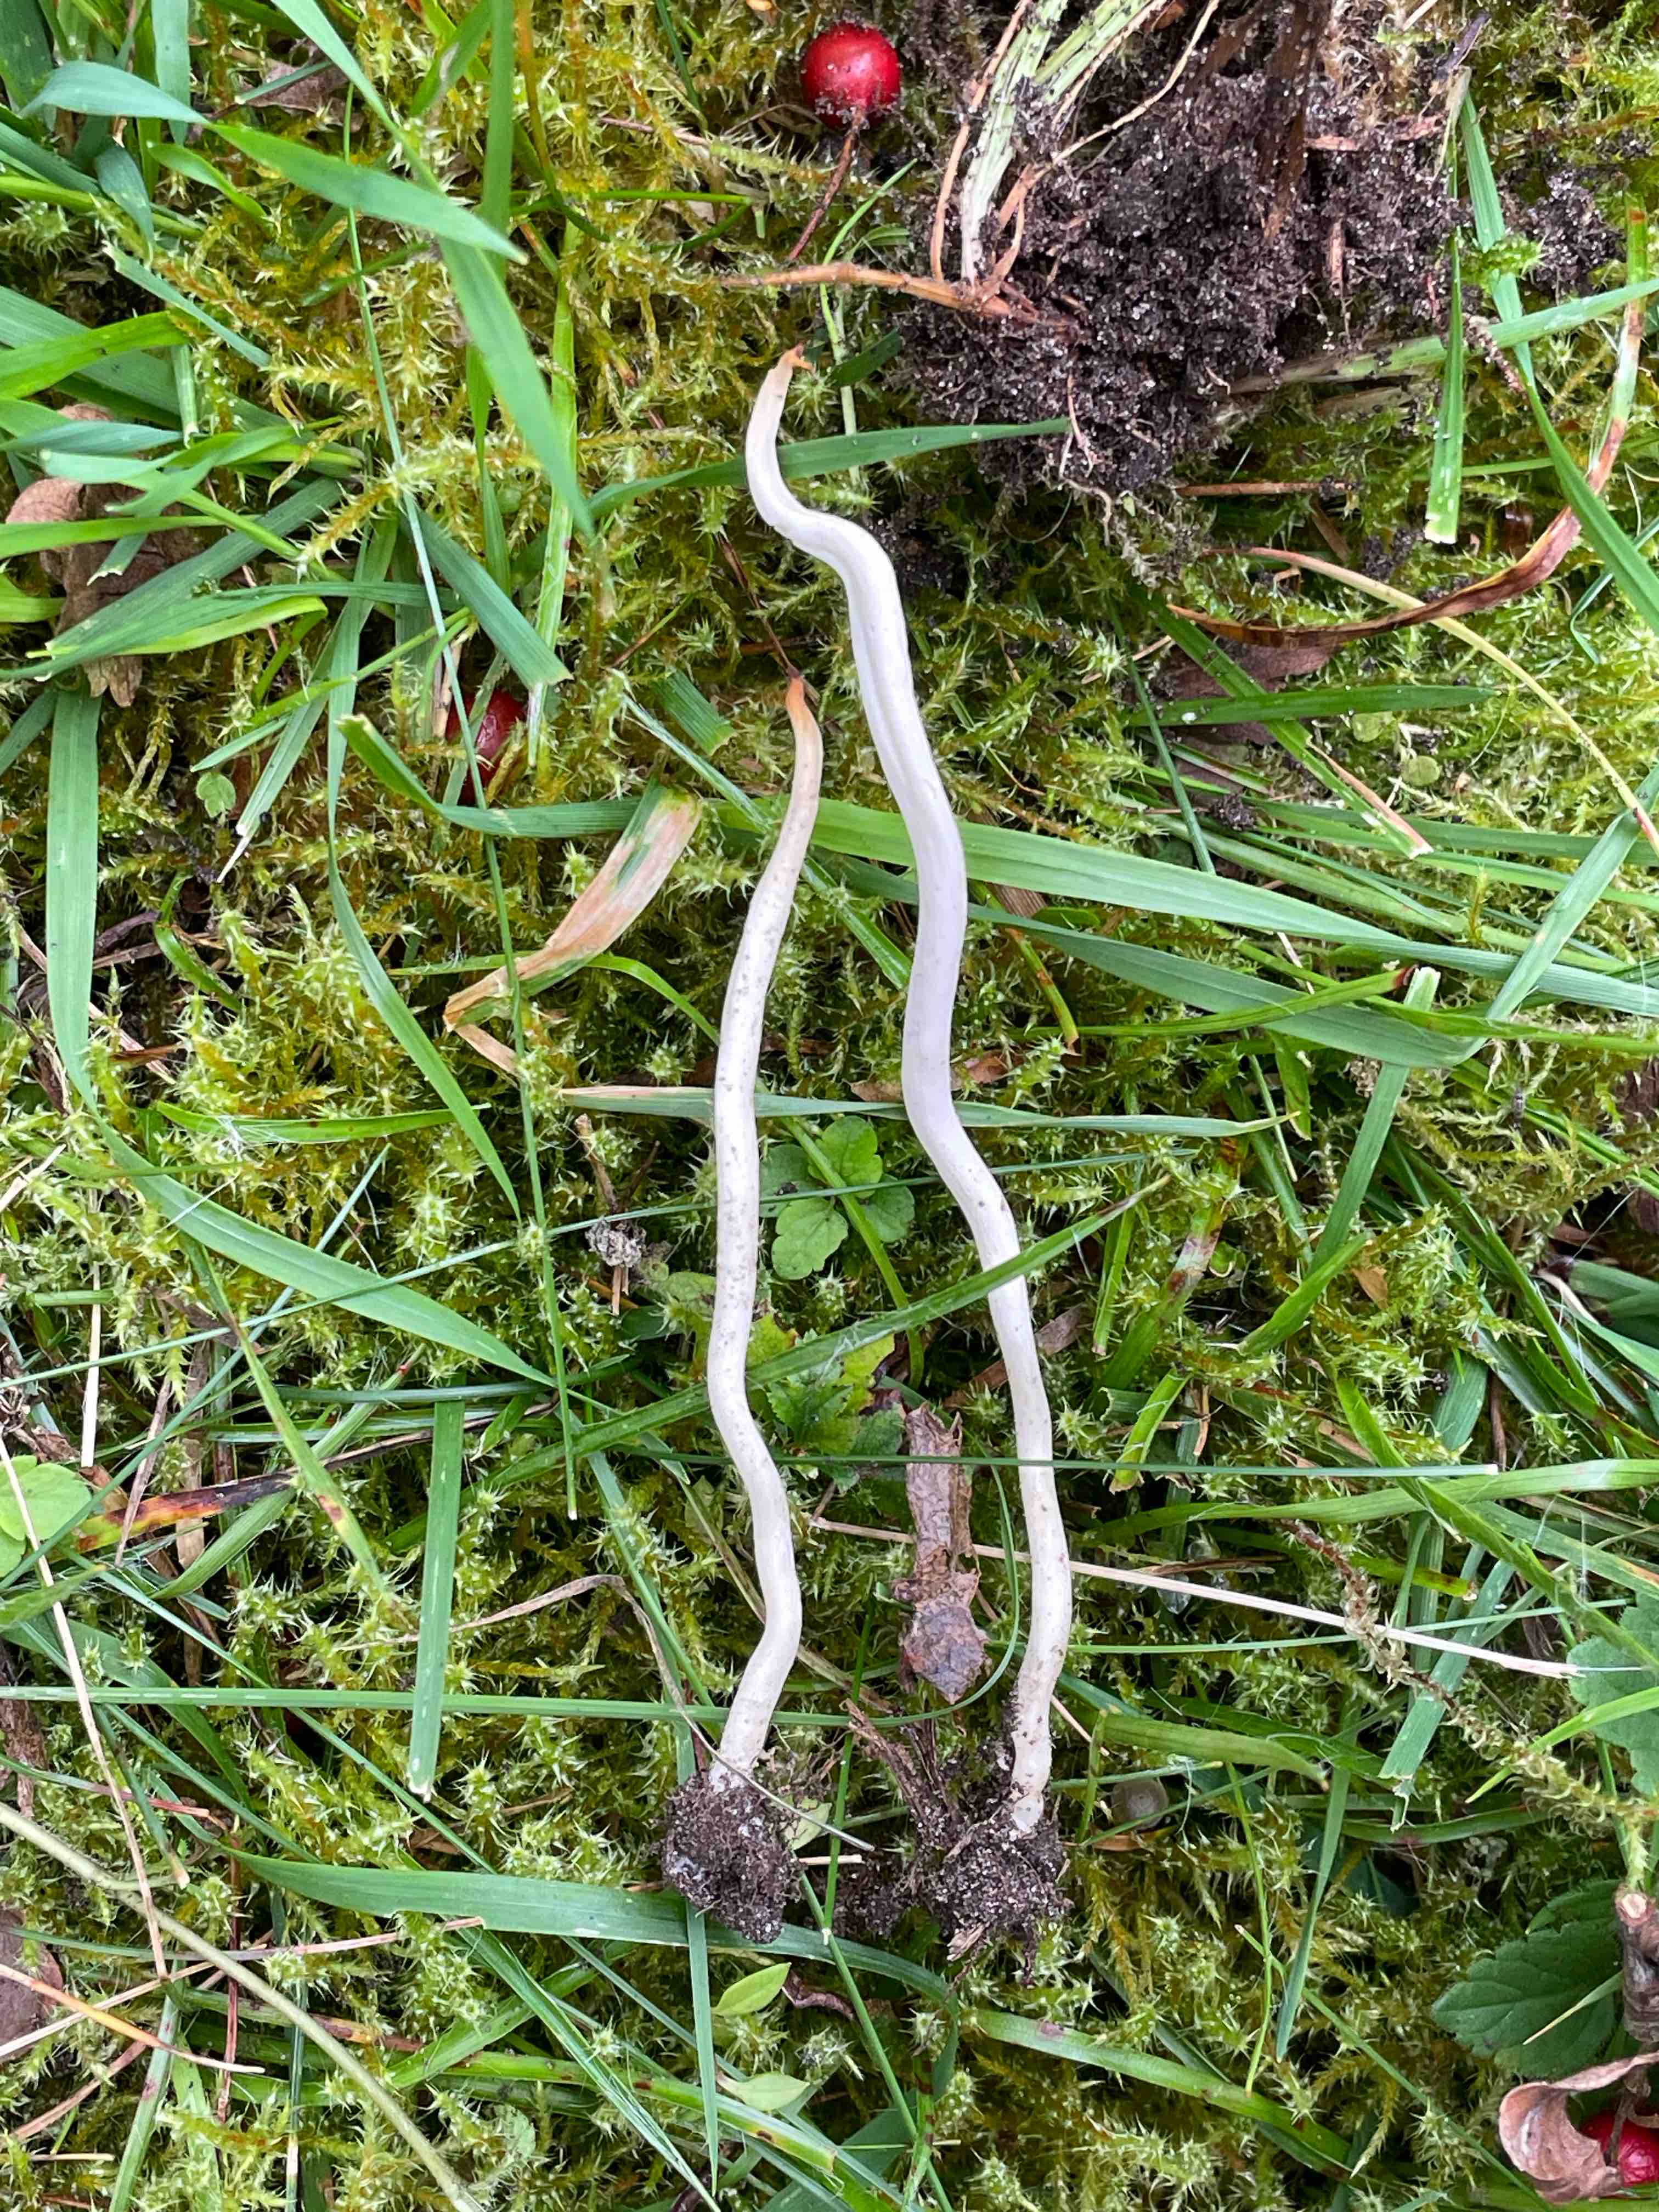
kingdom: Fungi
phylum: Basidiomycota
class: Agaricomycetes
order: Agaricales
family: Clavariaceae
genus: Clavaria
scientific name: Clavaria
